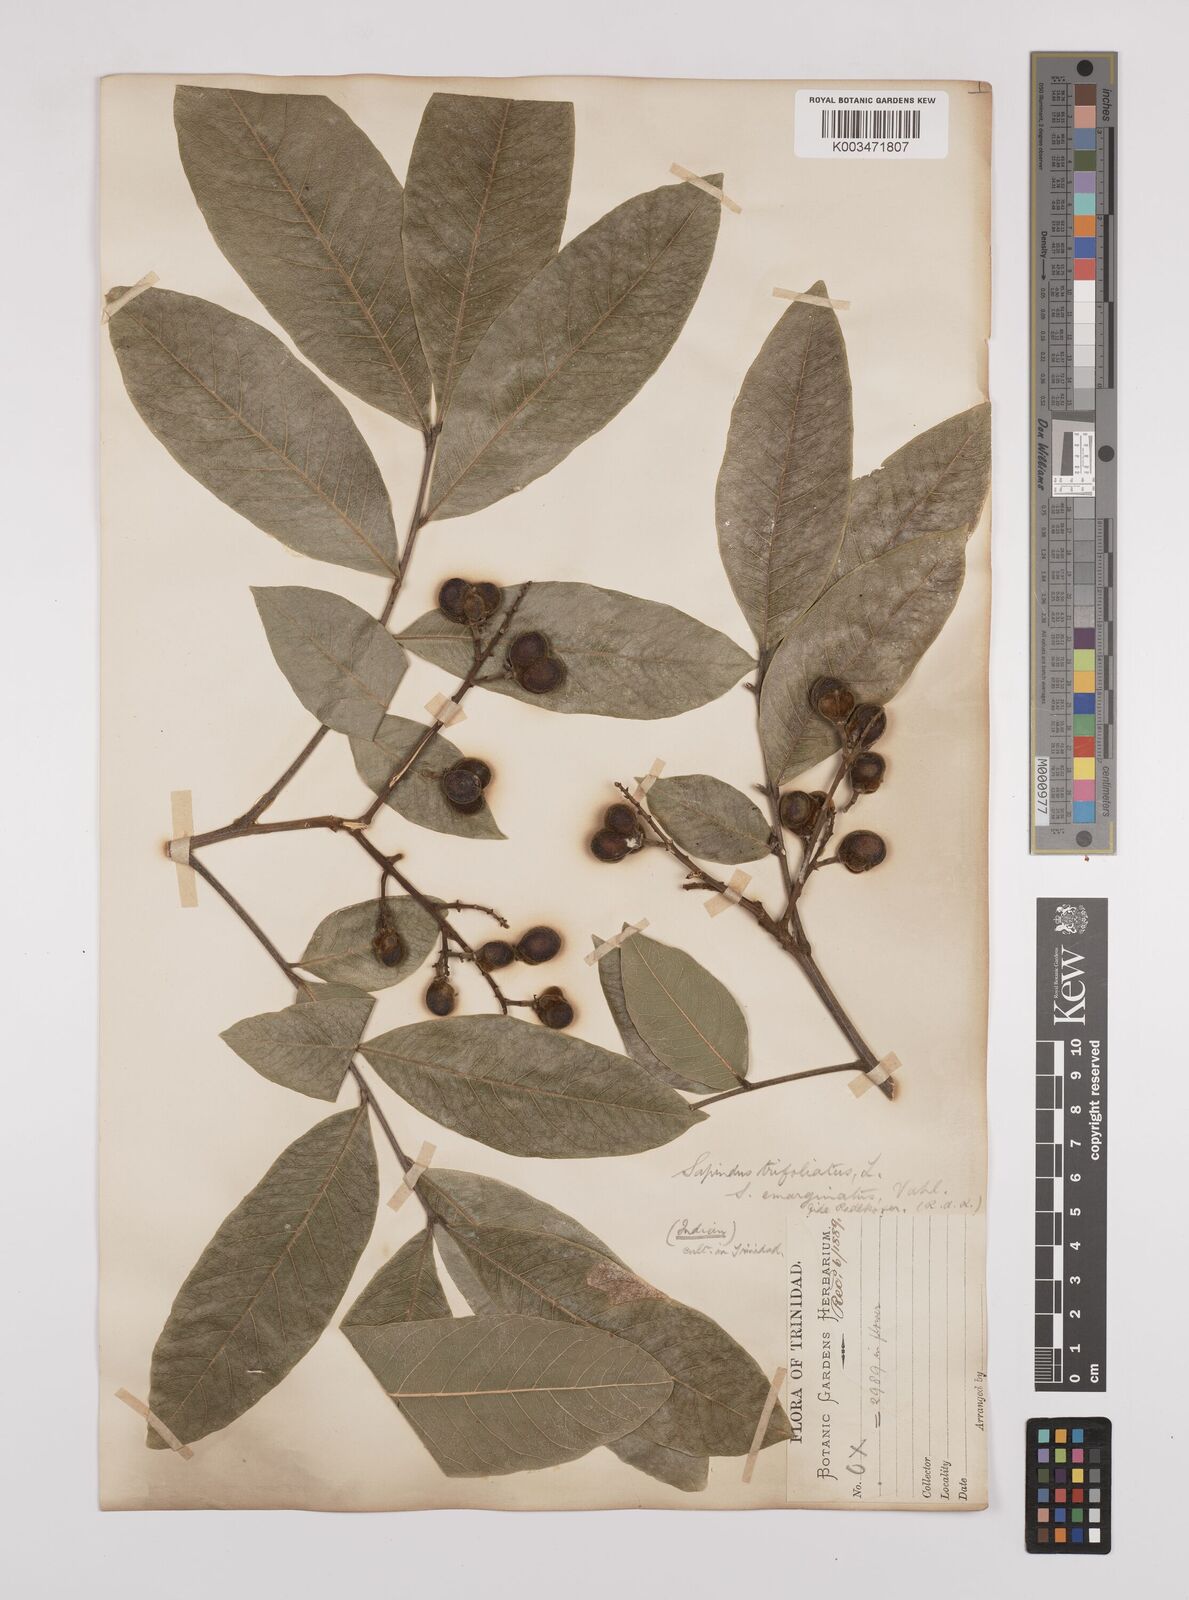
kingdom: Plantae
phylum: Tracheophyta
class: Magnoliopsida
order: Sapindales
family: Sapindaceae
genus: Sapindus
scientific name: Sapindus trifoliatus
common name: Three-leaf soapberry
